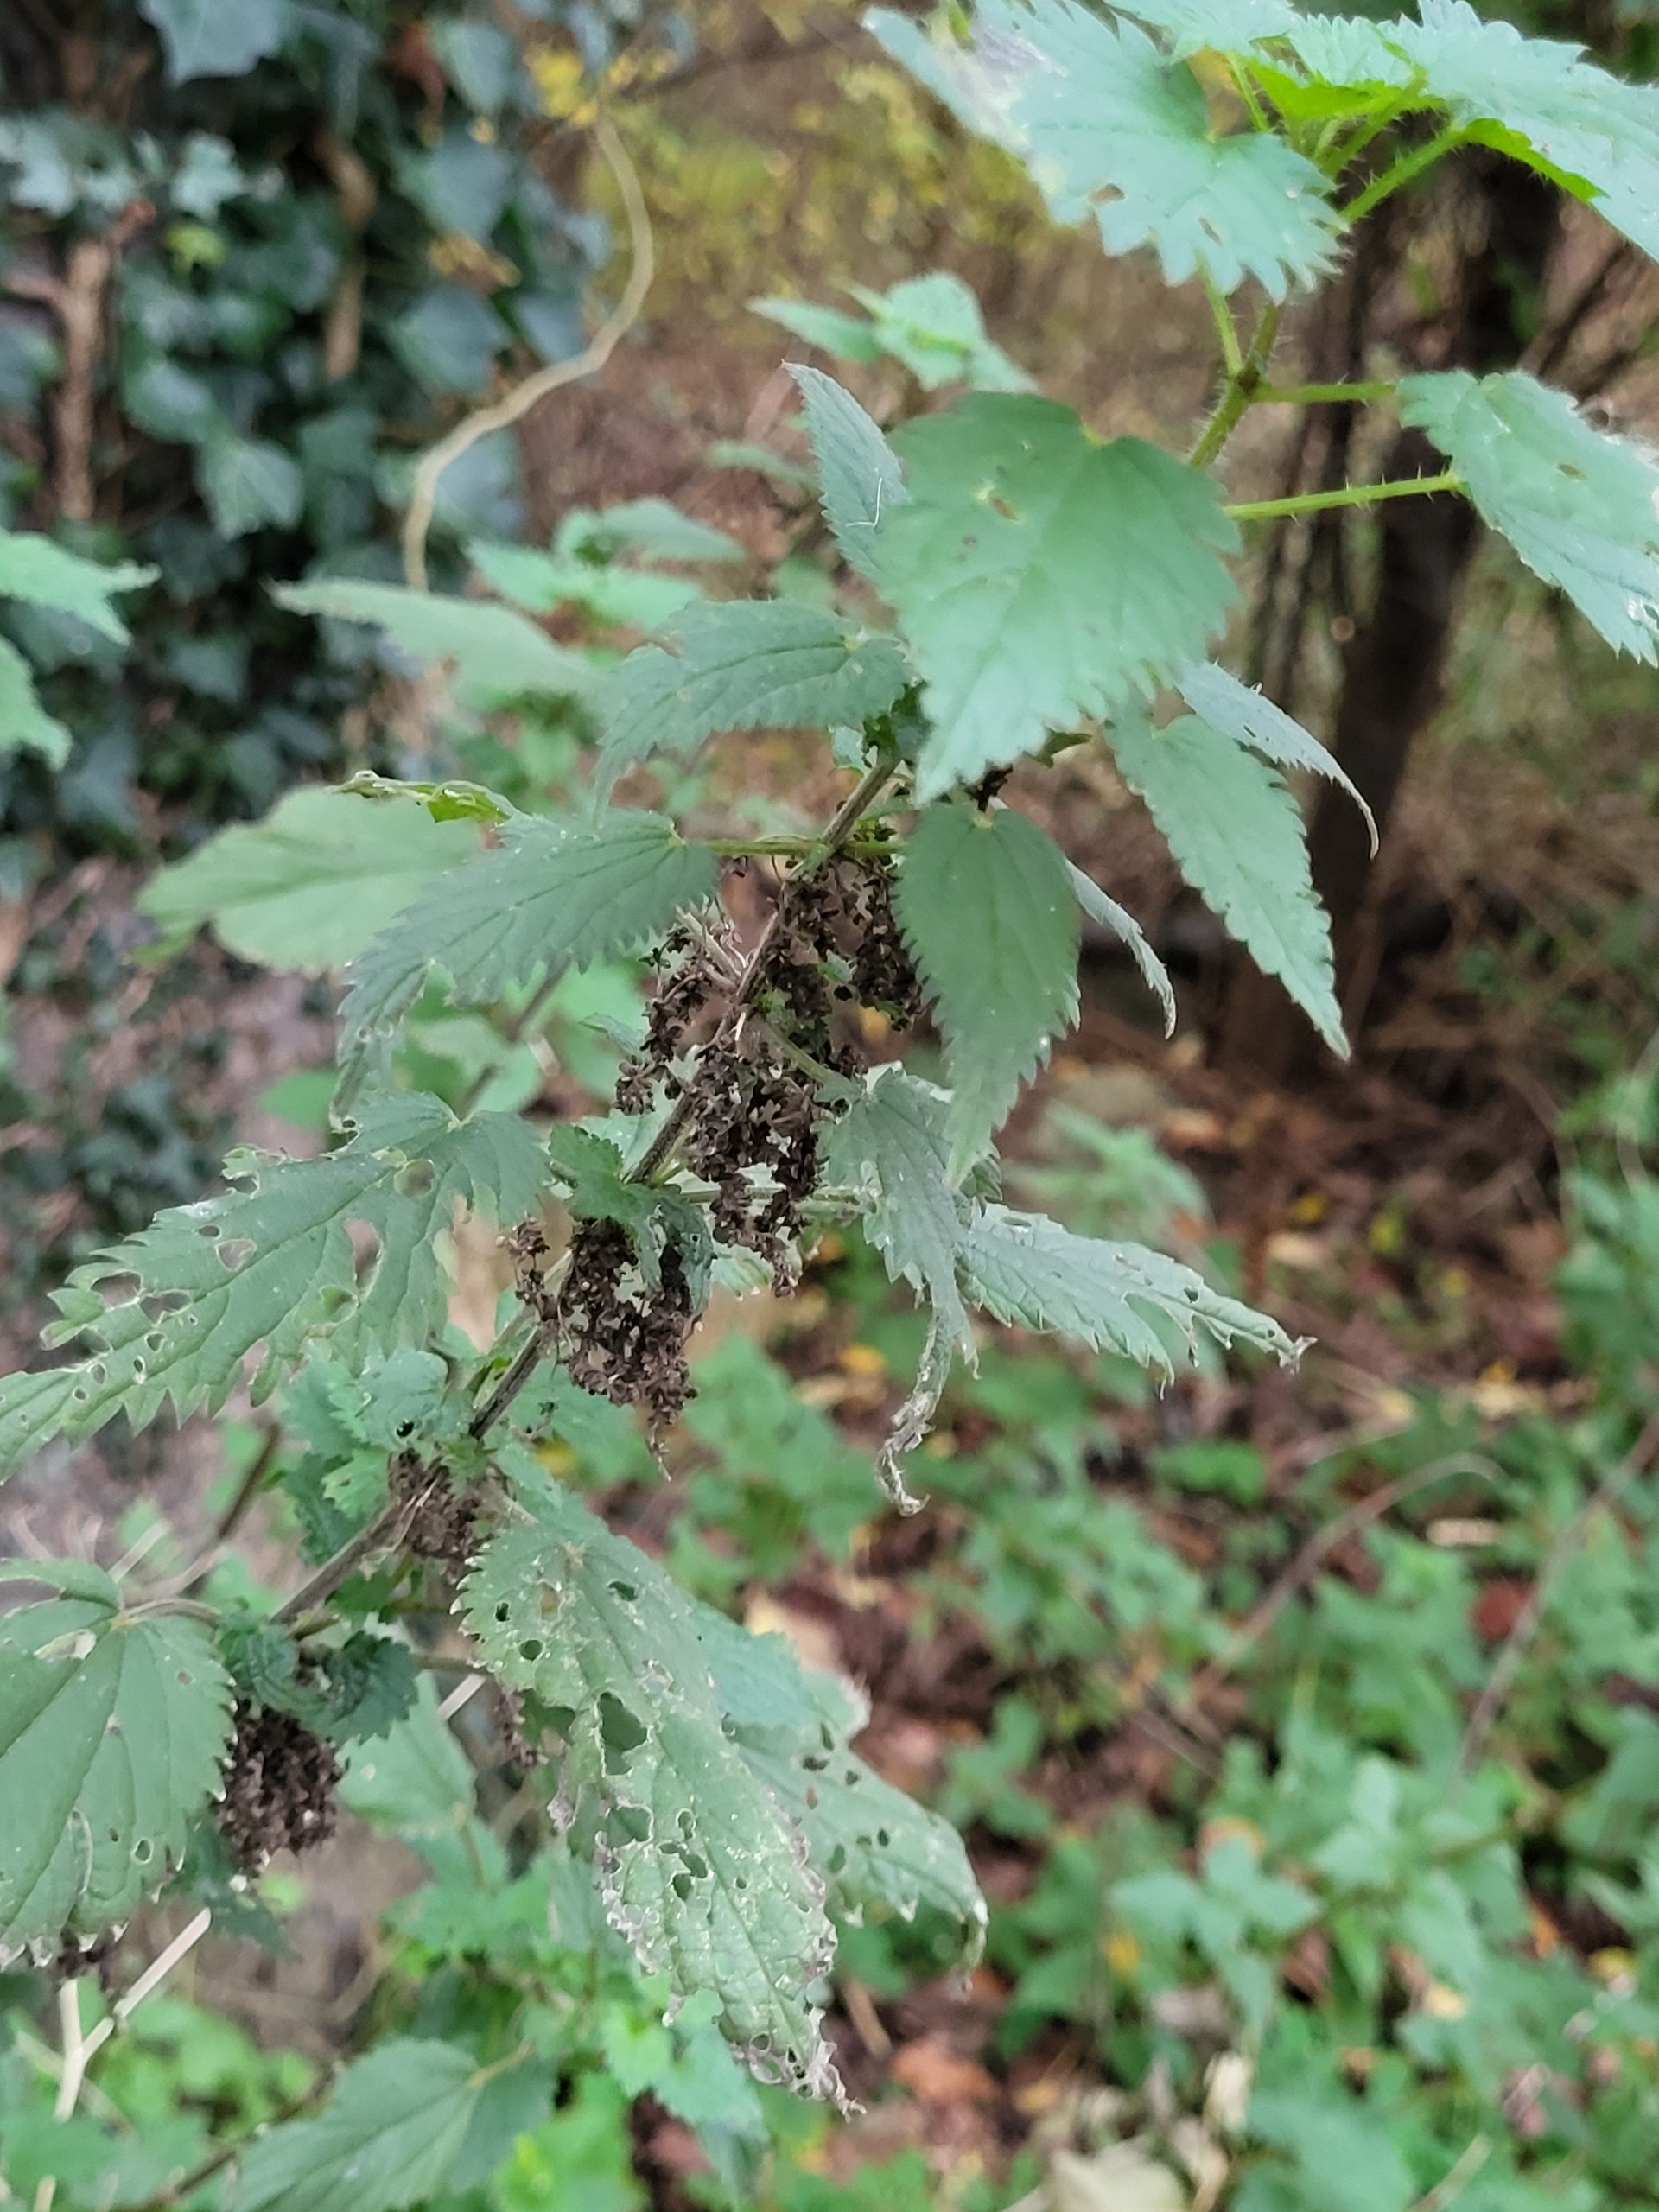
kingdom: Plantae
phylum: Tracheophyta
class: Magnoliopsida
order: Rosales
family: Urticaceae
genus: Urtica
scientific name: Urtica dioica
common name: Stor nælde
